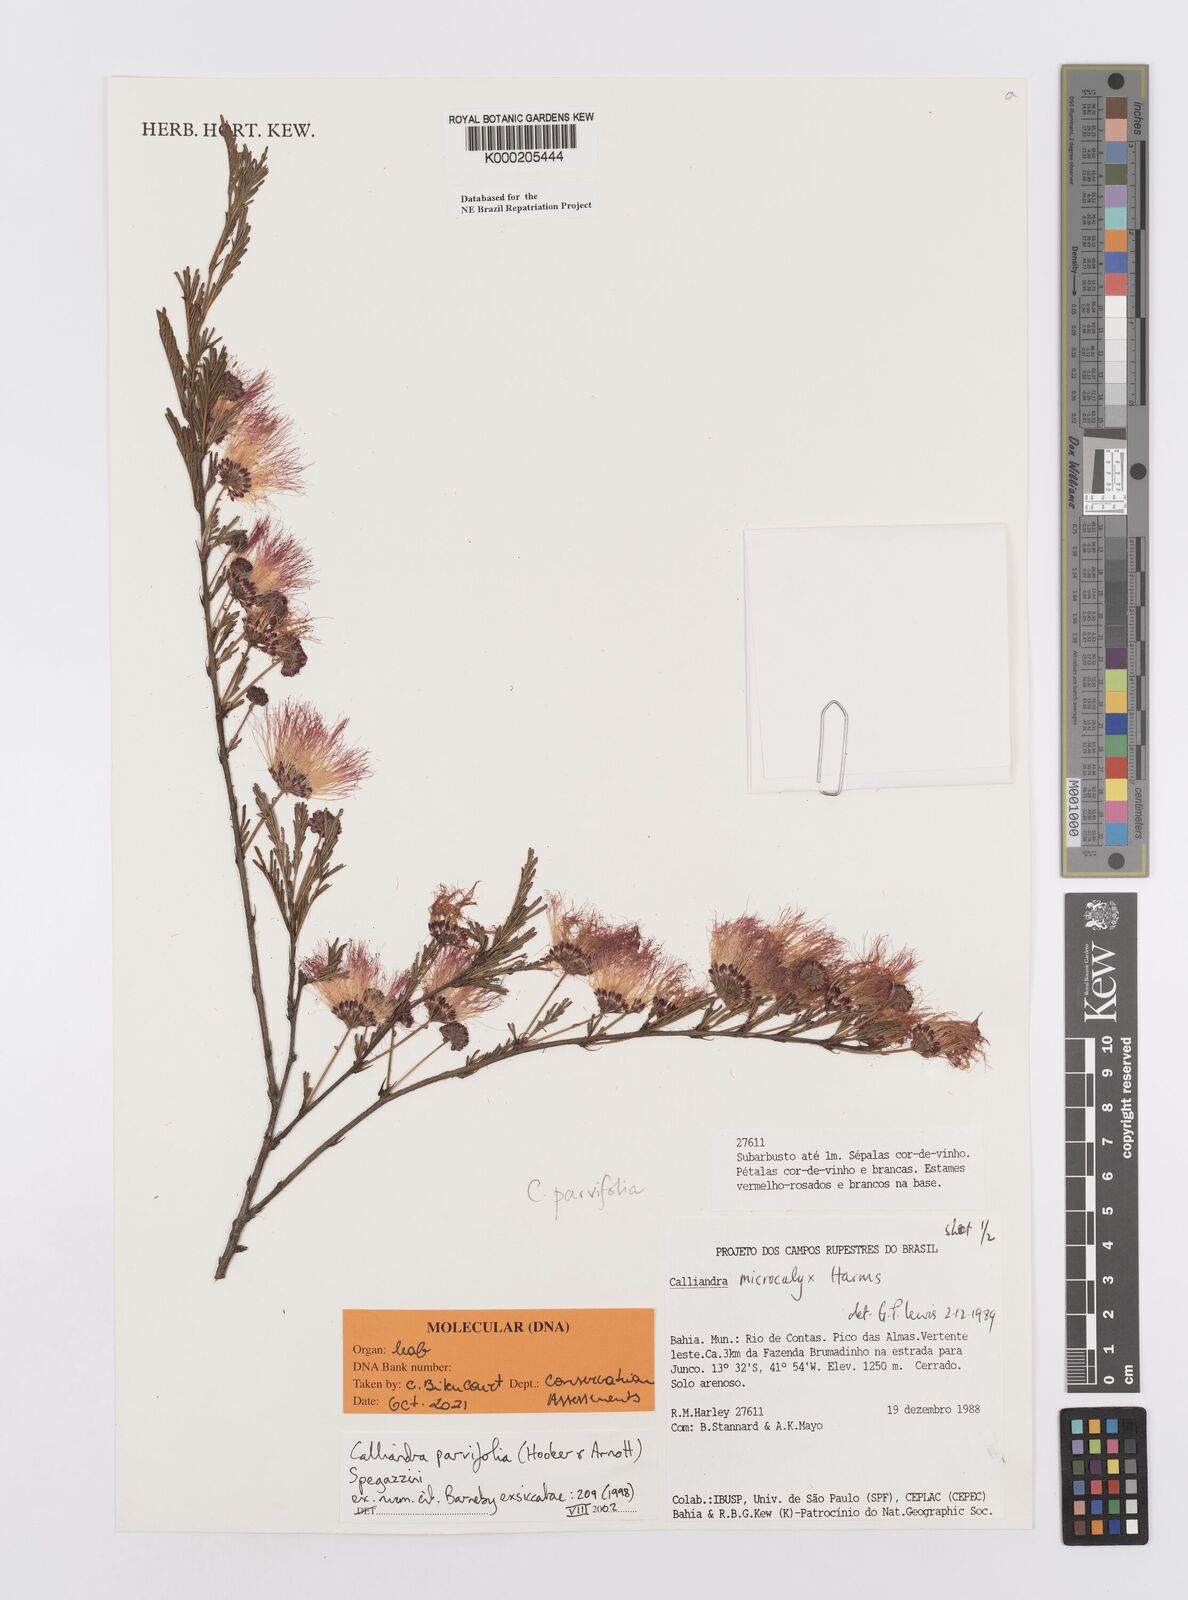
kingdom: Plantae
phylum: Tracheophyta
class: Magnoliopsida
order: Fabales
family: Fabaceae
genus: Calliandra
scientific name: Calliandra parvifolia
